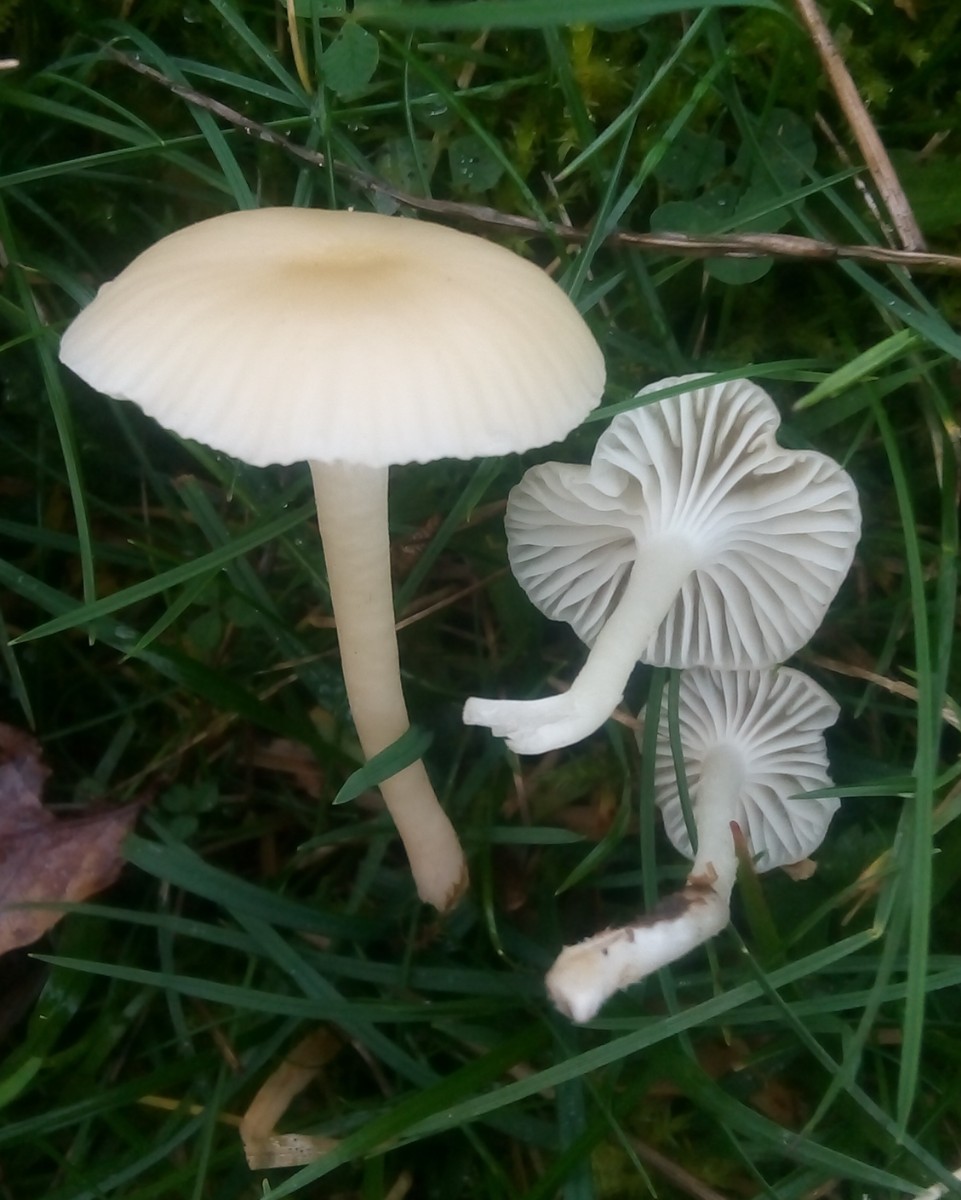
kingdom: Fungi
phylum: Basidiomycota
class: Agaricomycetes
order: Agaricales
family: Hygrophoraceae
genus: Cuphophyllus
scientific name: Cuphophyllus russocoriaceus
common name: ruslæder-vokshat
